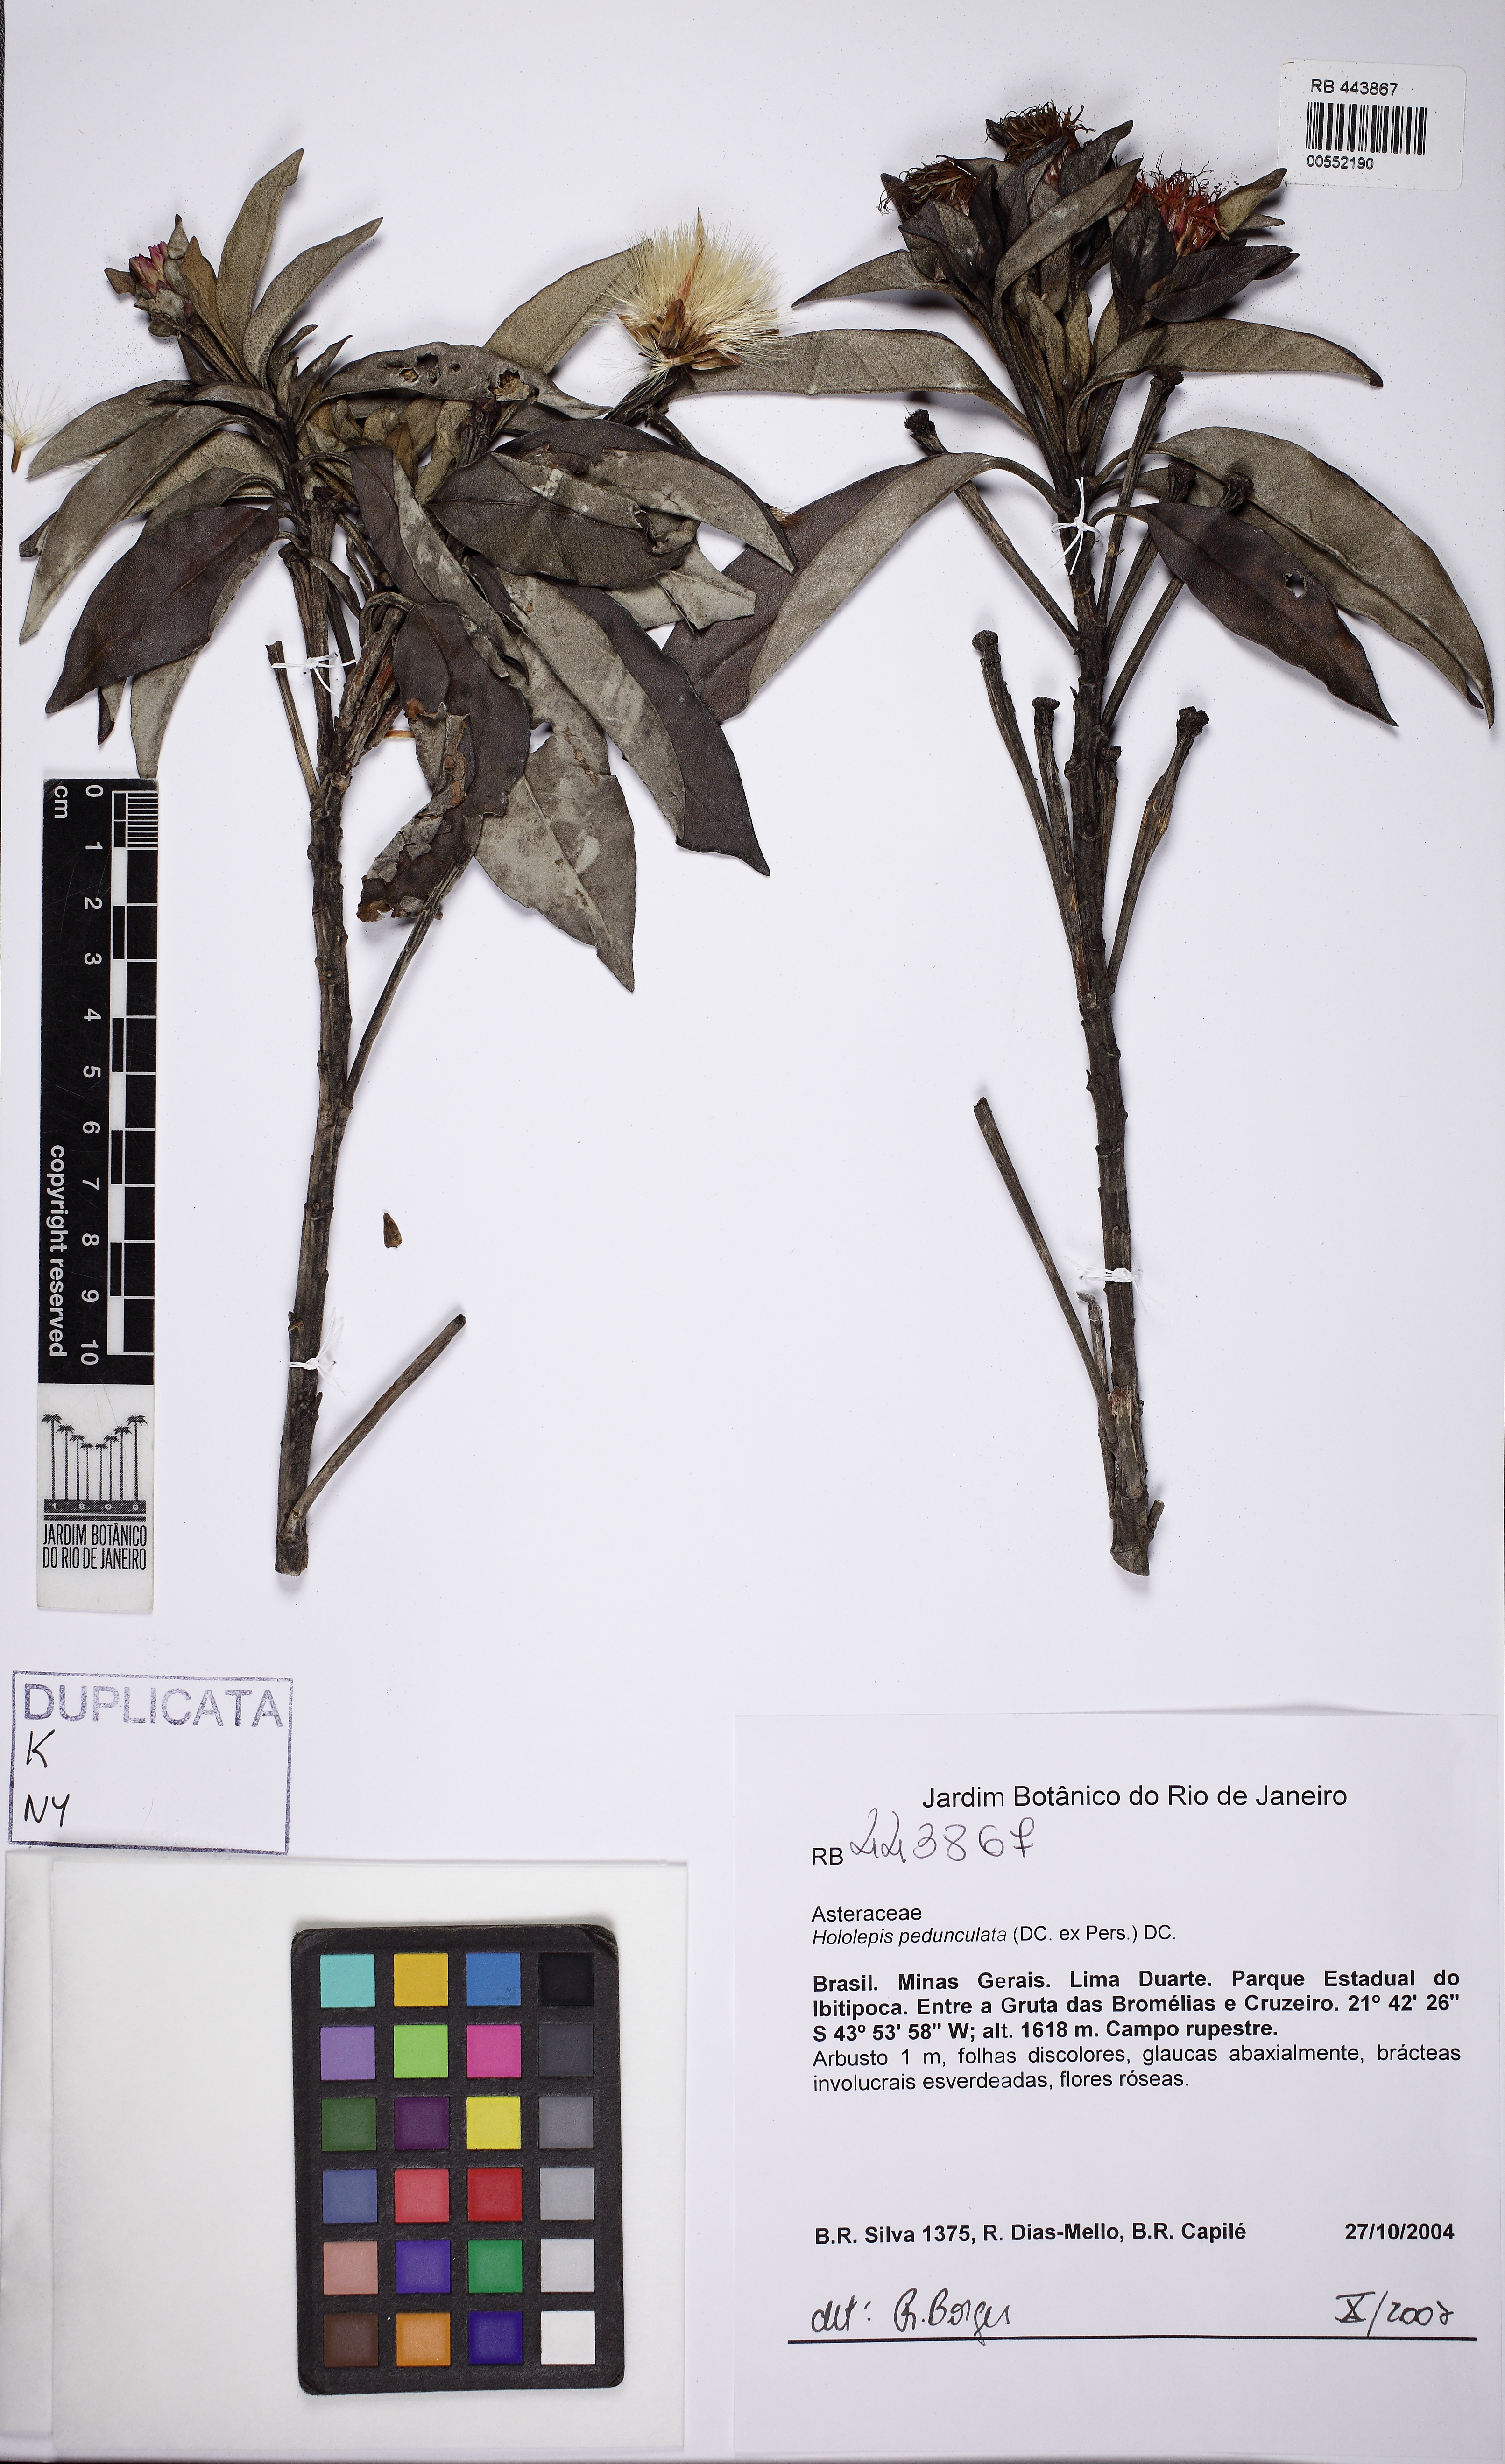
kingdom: Plantae
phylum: Tracheophyta
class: Magnoliopsida
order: Asterales
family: Asteraceae
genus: Hololepis
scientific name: Hololepis pedunculata
